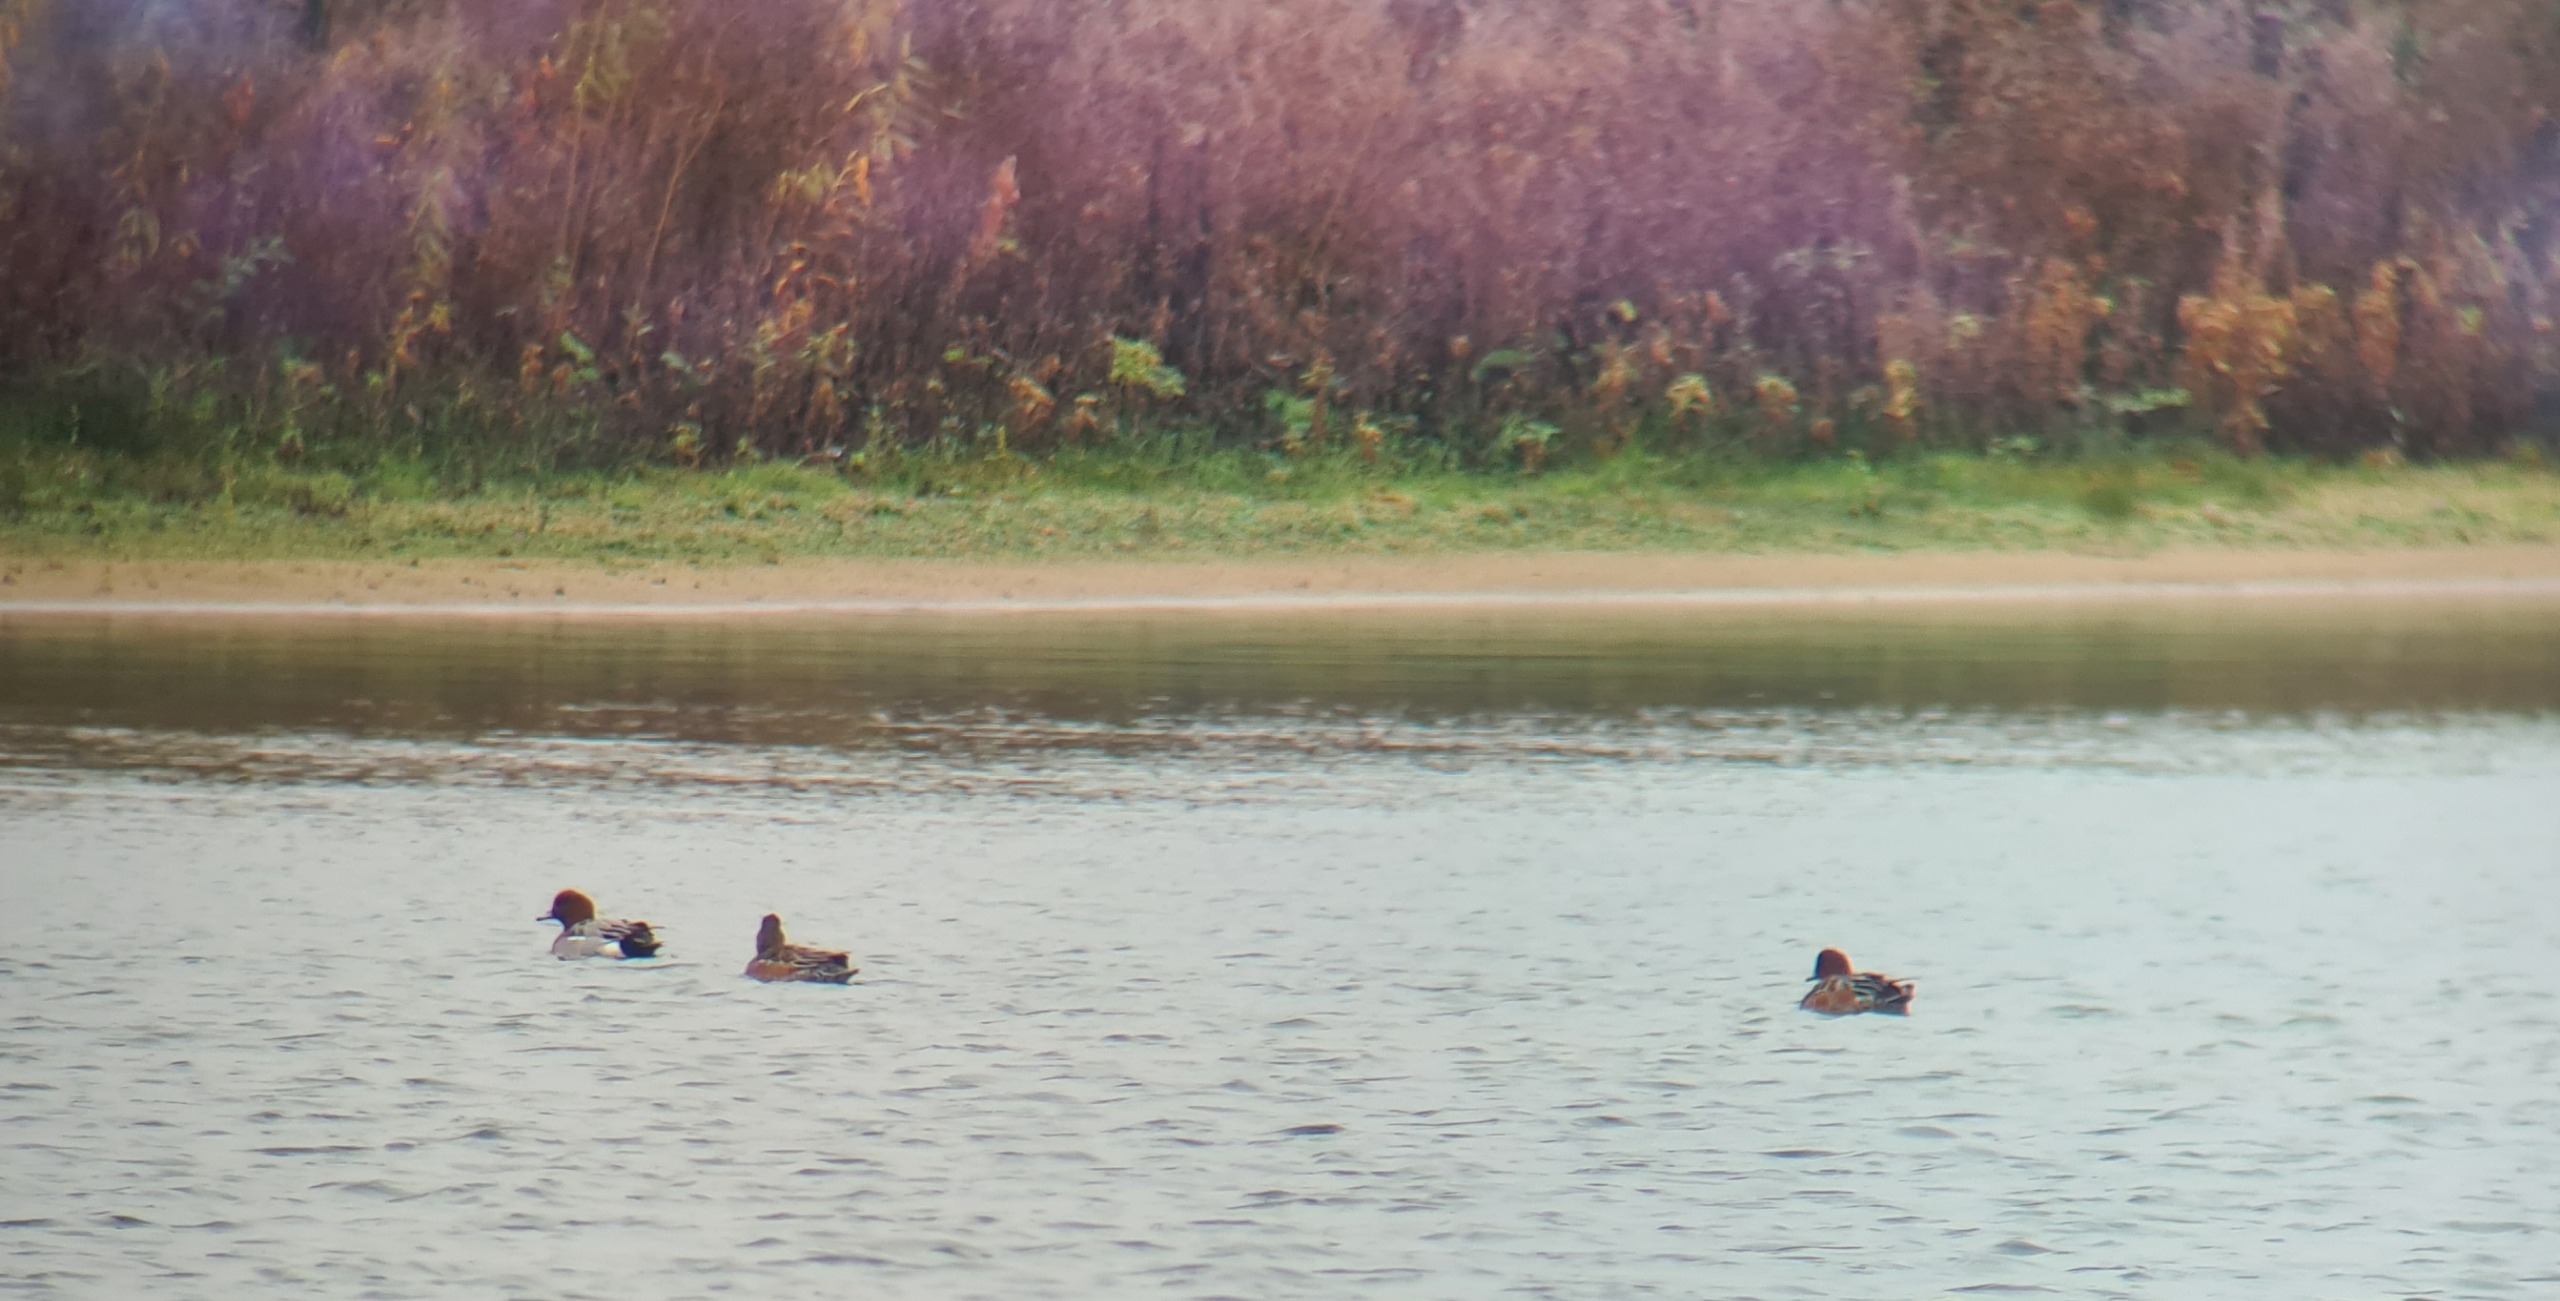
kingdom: Animalia
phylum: Chordata
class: Aves
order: Anseriformes
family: Anatidae
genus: Mareca
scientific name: Mareca penelope
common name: Pibeand
